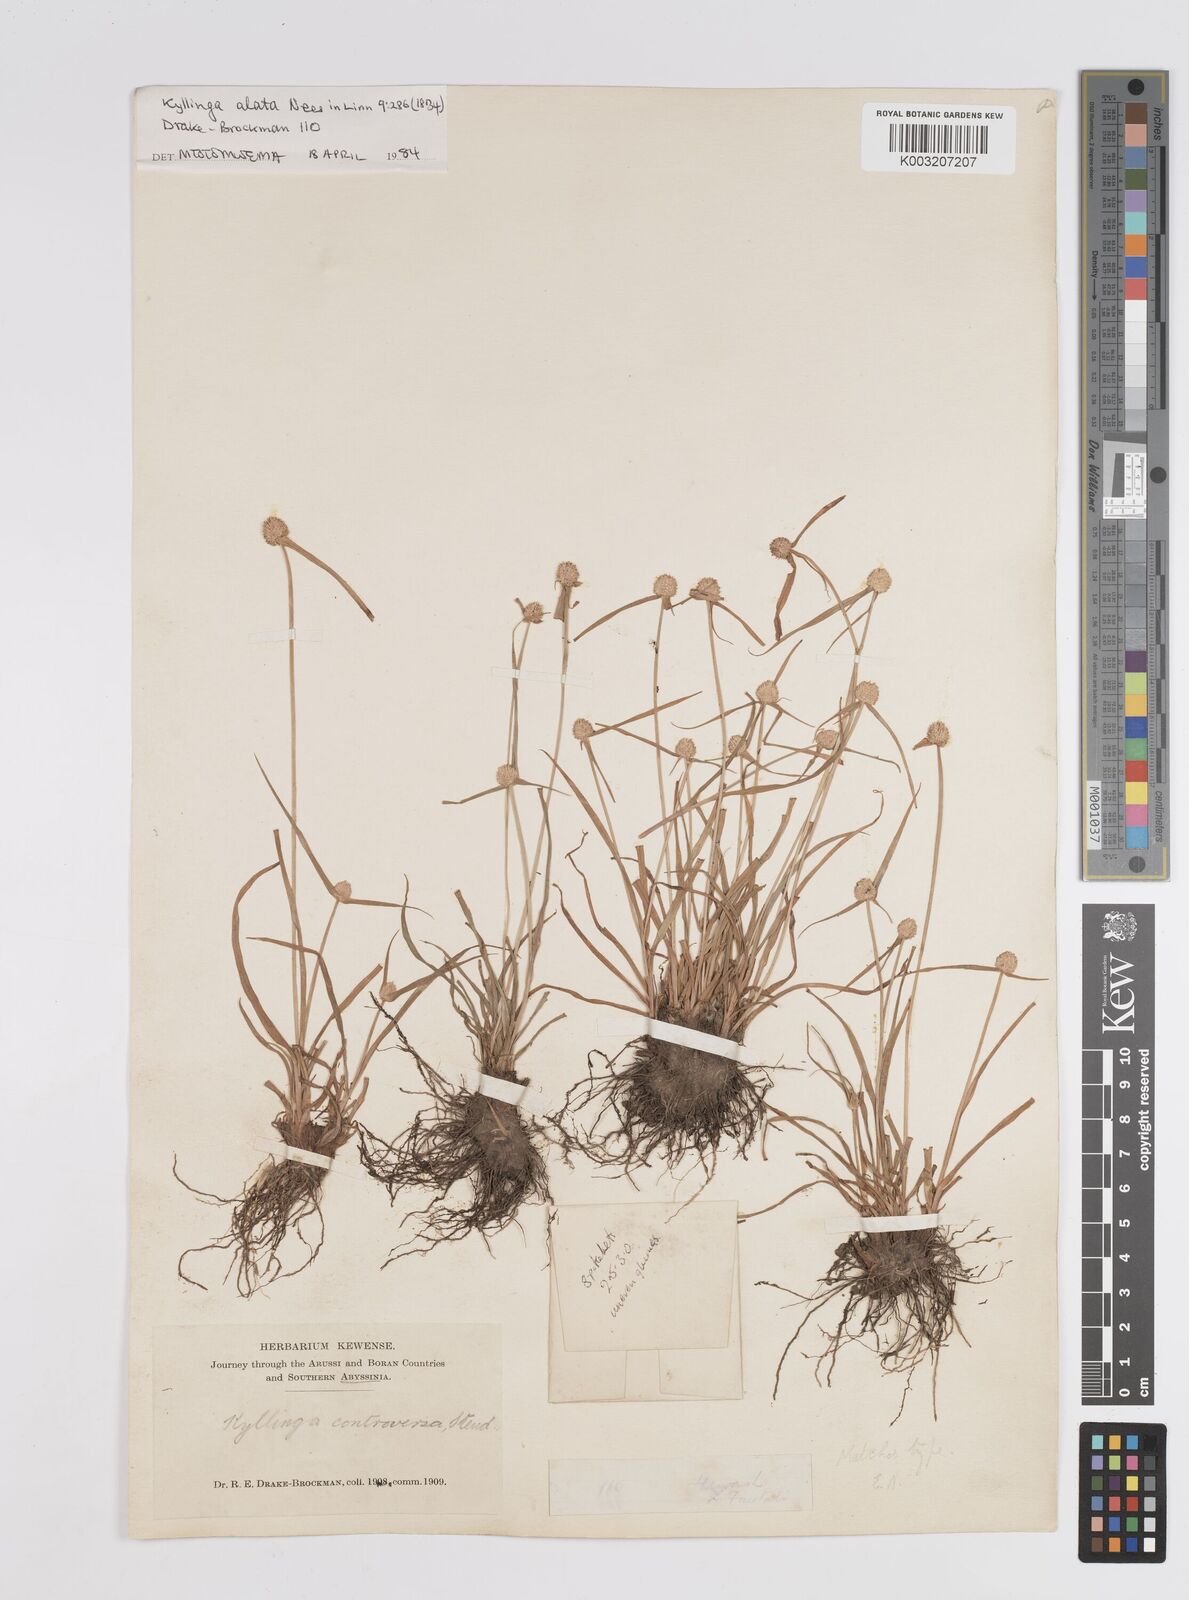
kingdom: Plantae
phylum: Tracheophyta
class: Liliopsida
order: Poales
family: Cyperaceae
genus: Cyperus
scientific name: Cyperus controversus
